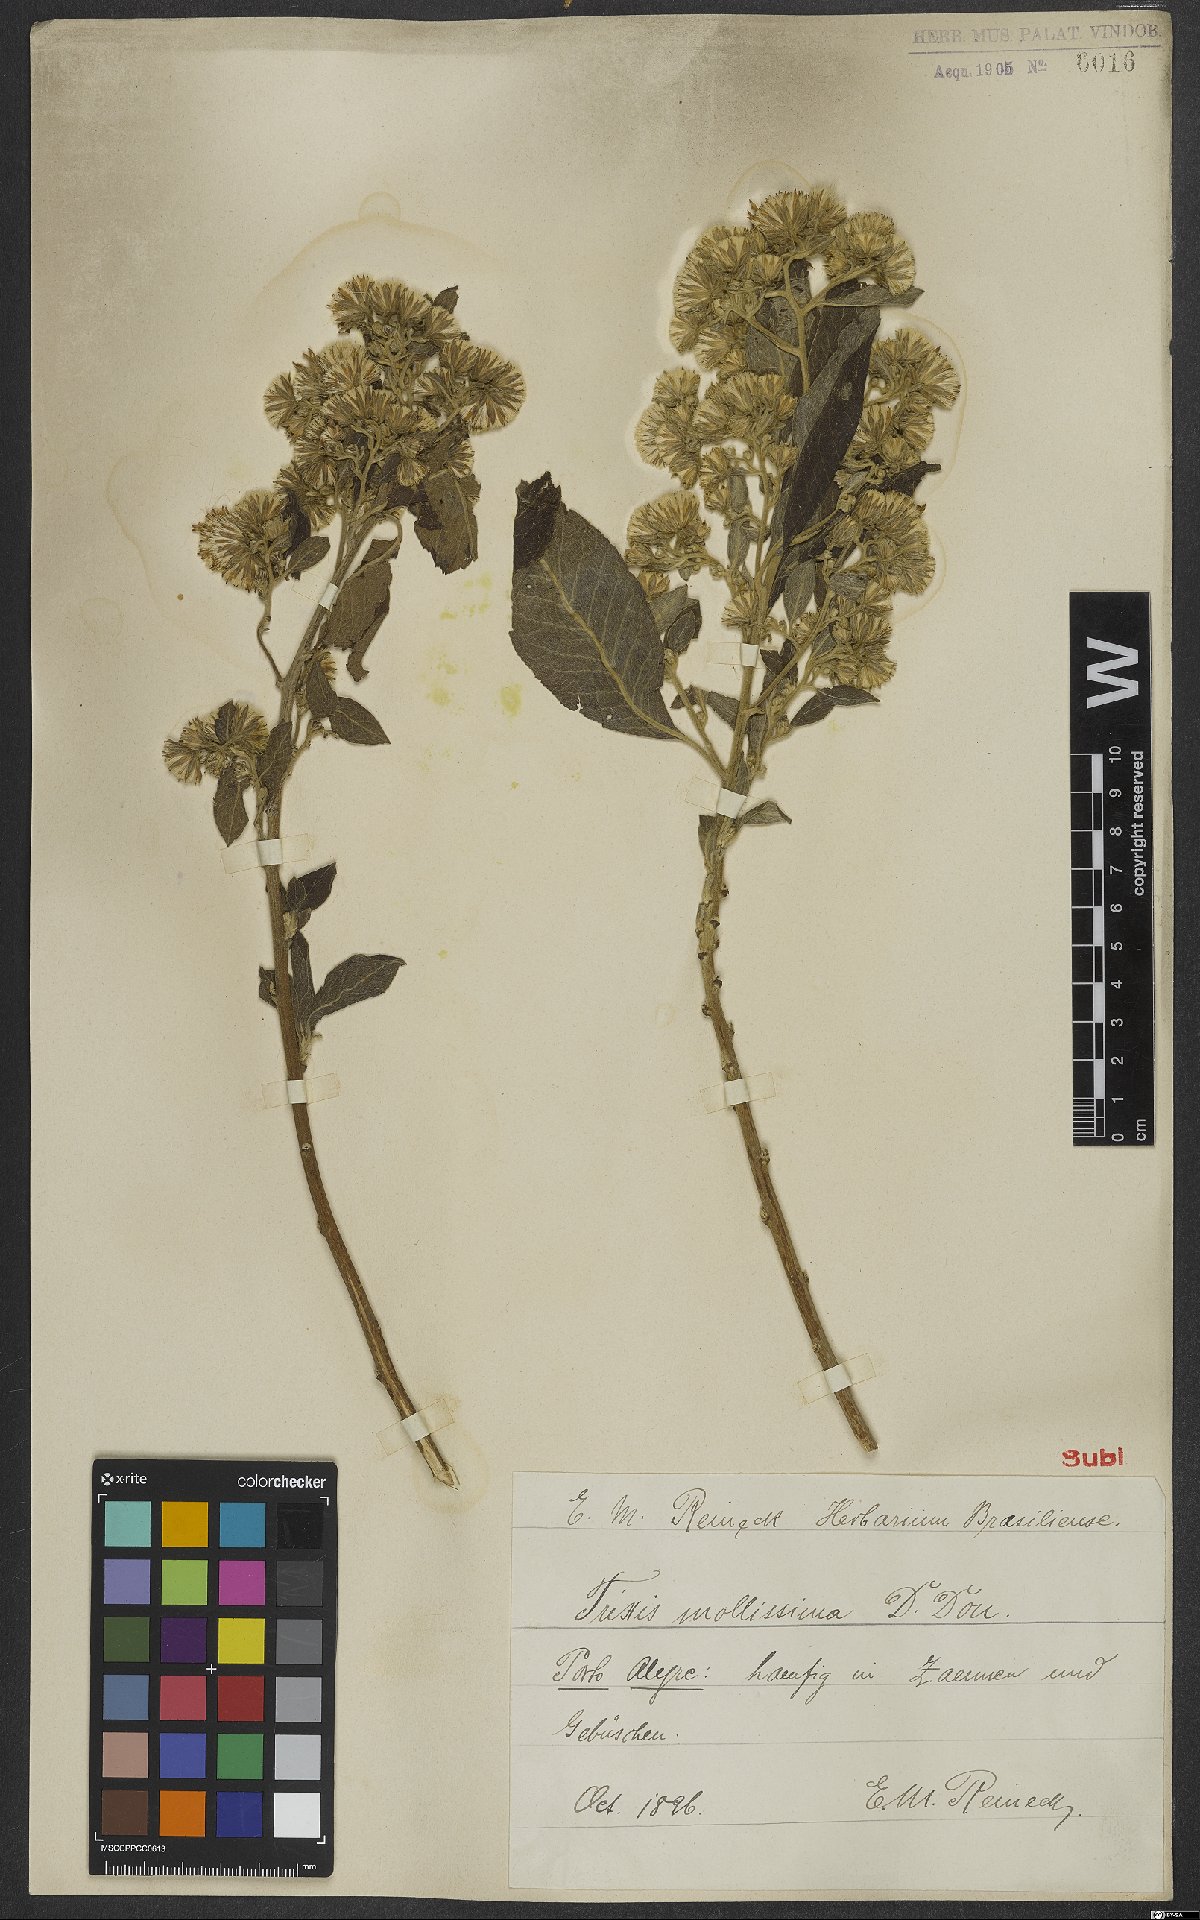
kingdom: Plantae
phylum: Tracheophyta
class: Magnoliopsida
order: Asterales
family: Asteraceae
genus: Trixis
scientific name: Trixis praestans
